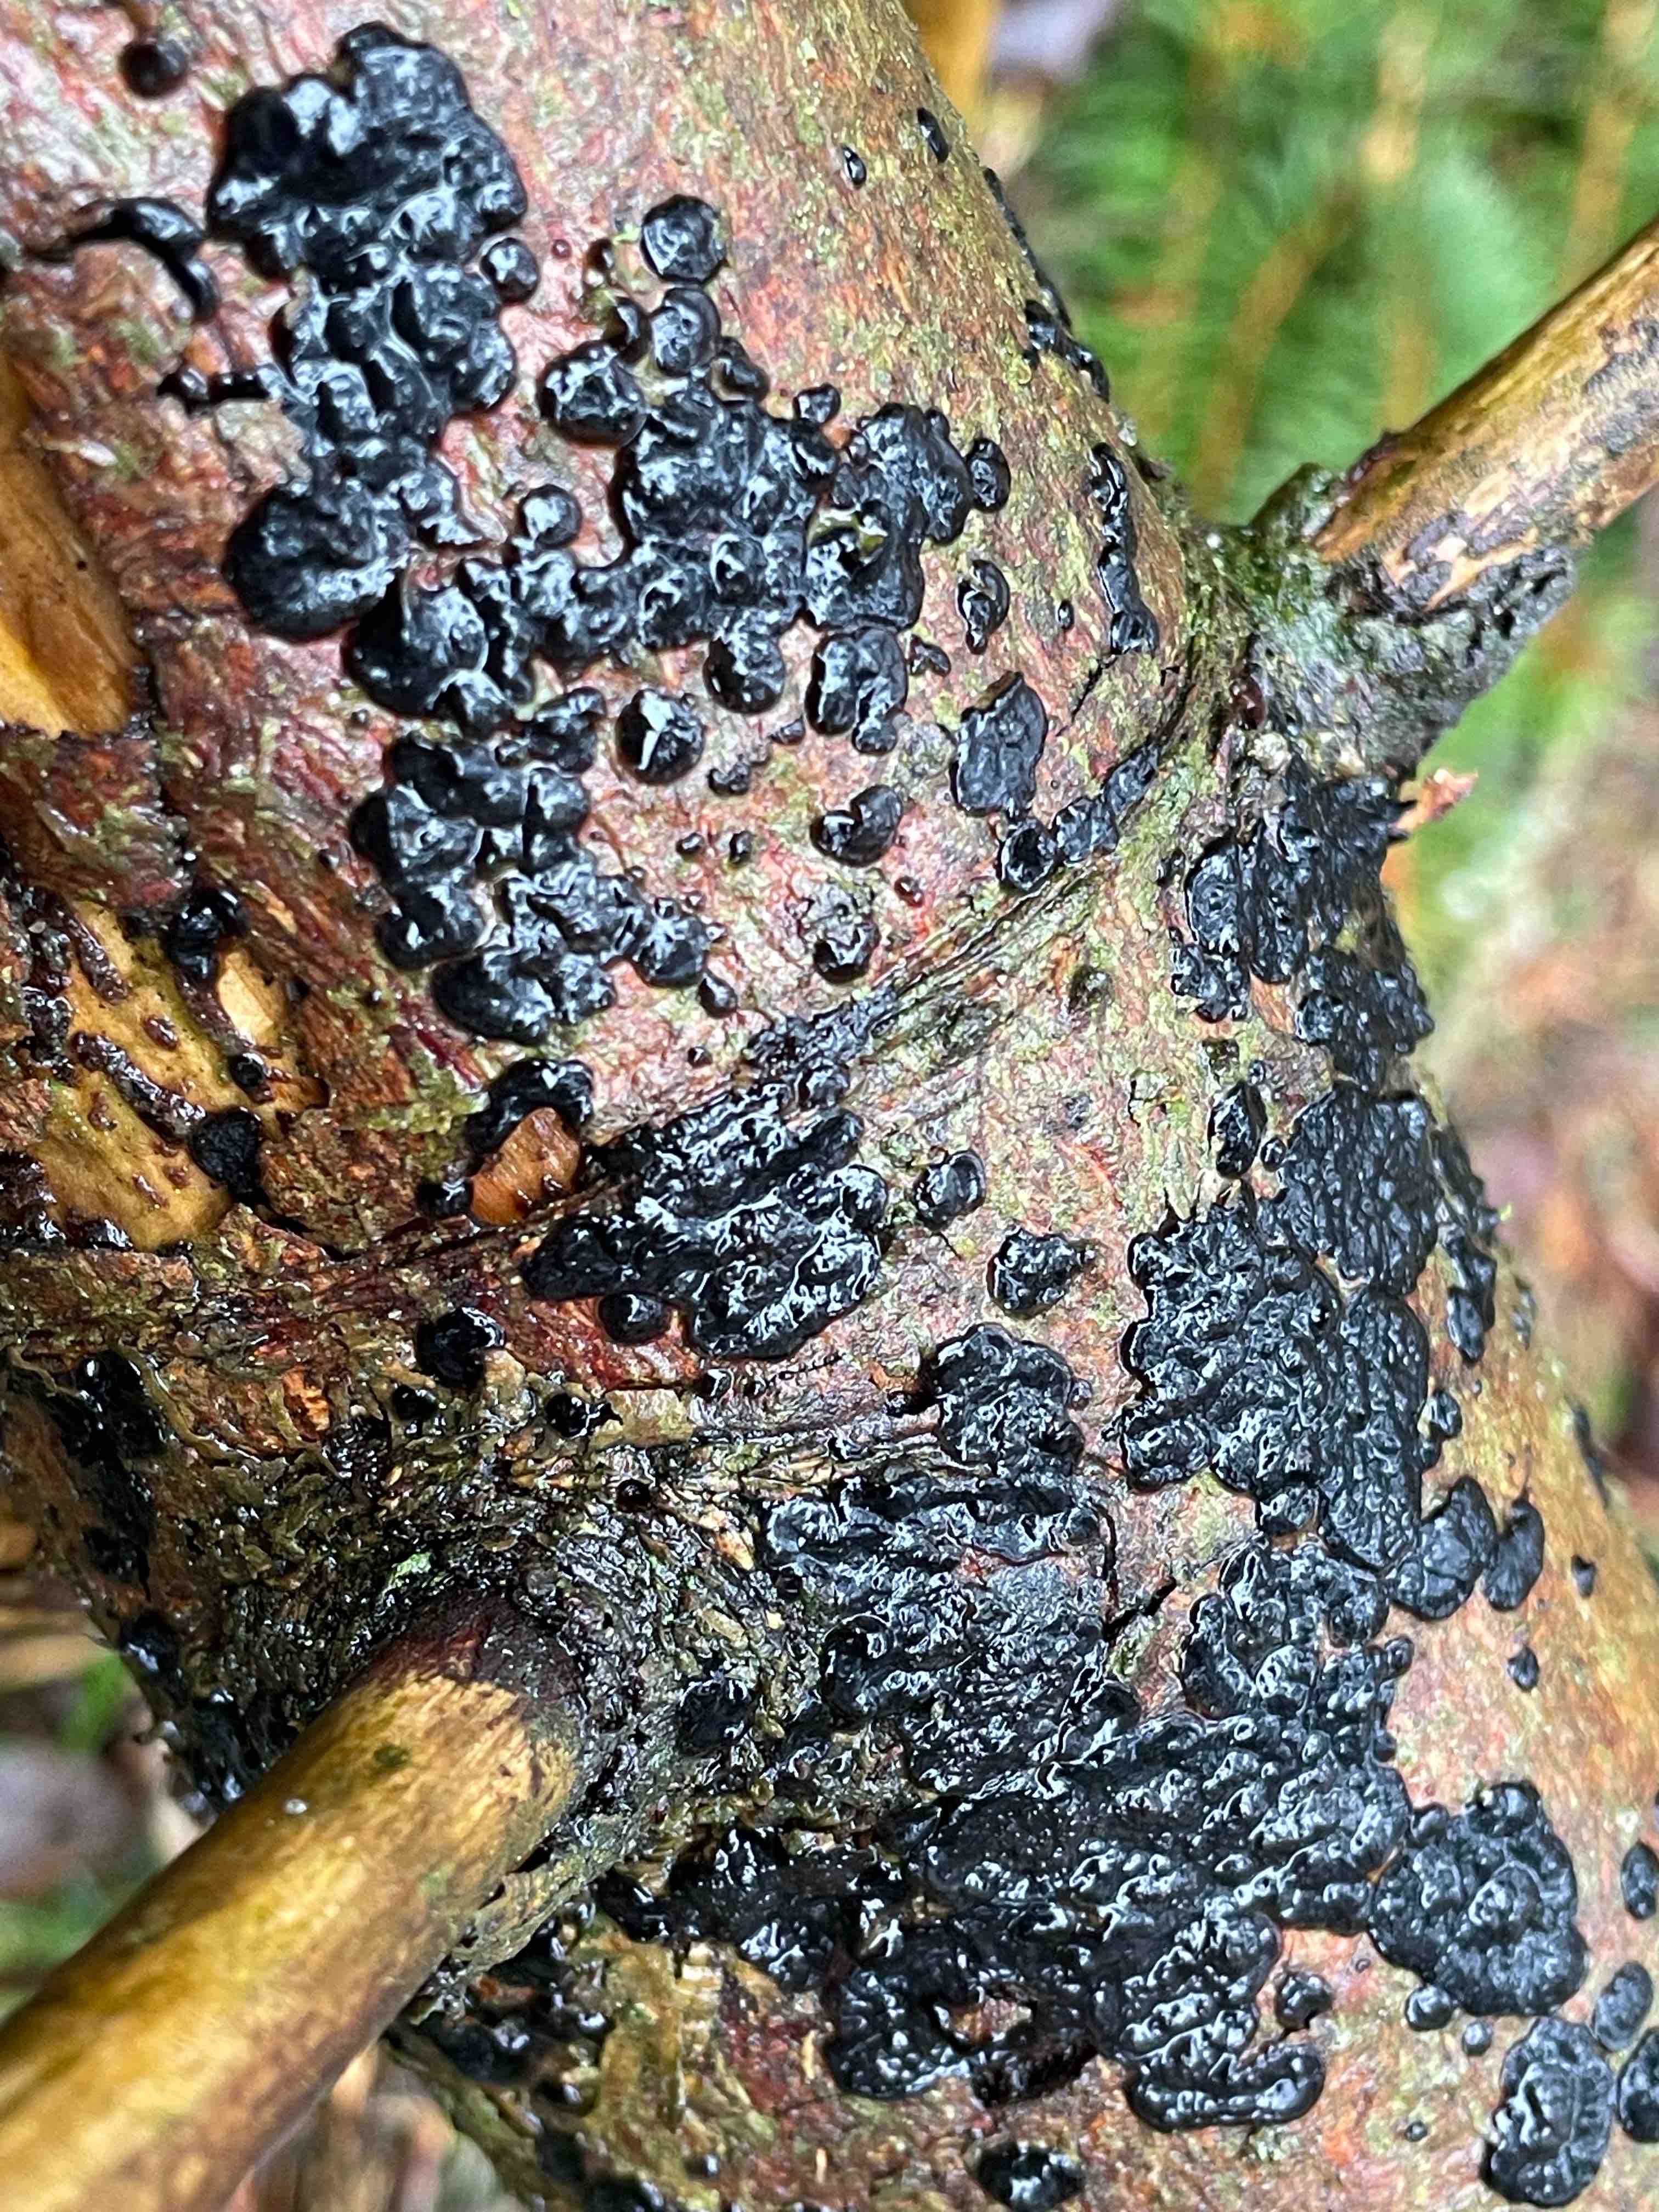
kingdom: Fungi
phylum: Basidiomycota
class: Agaricomycetes
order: Auriculariales
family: Auriculariaceae
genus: Exidia
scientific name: Exidia pithya
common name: gran-bævretop
